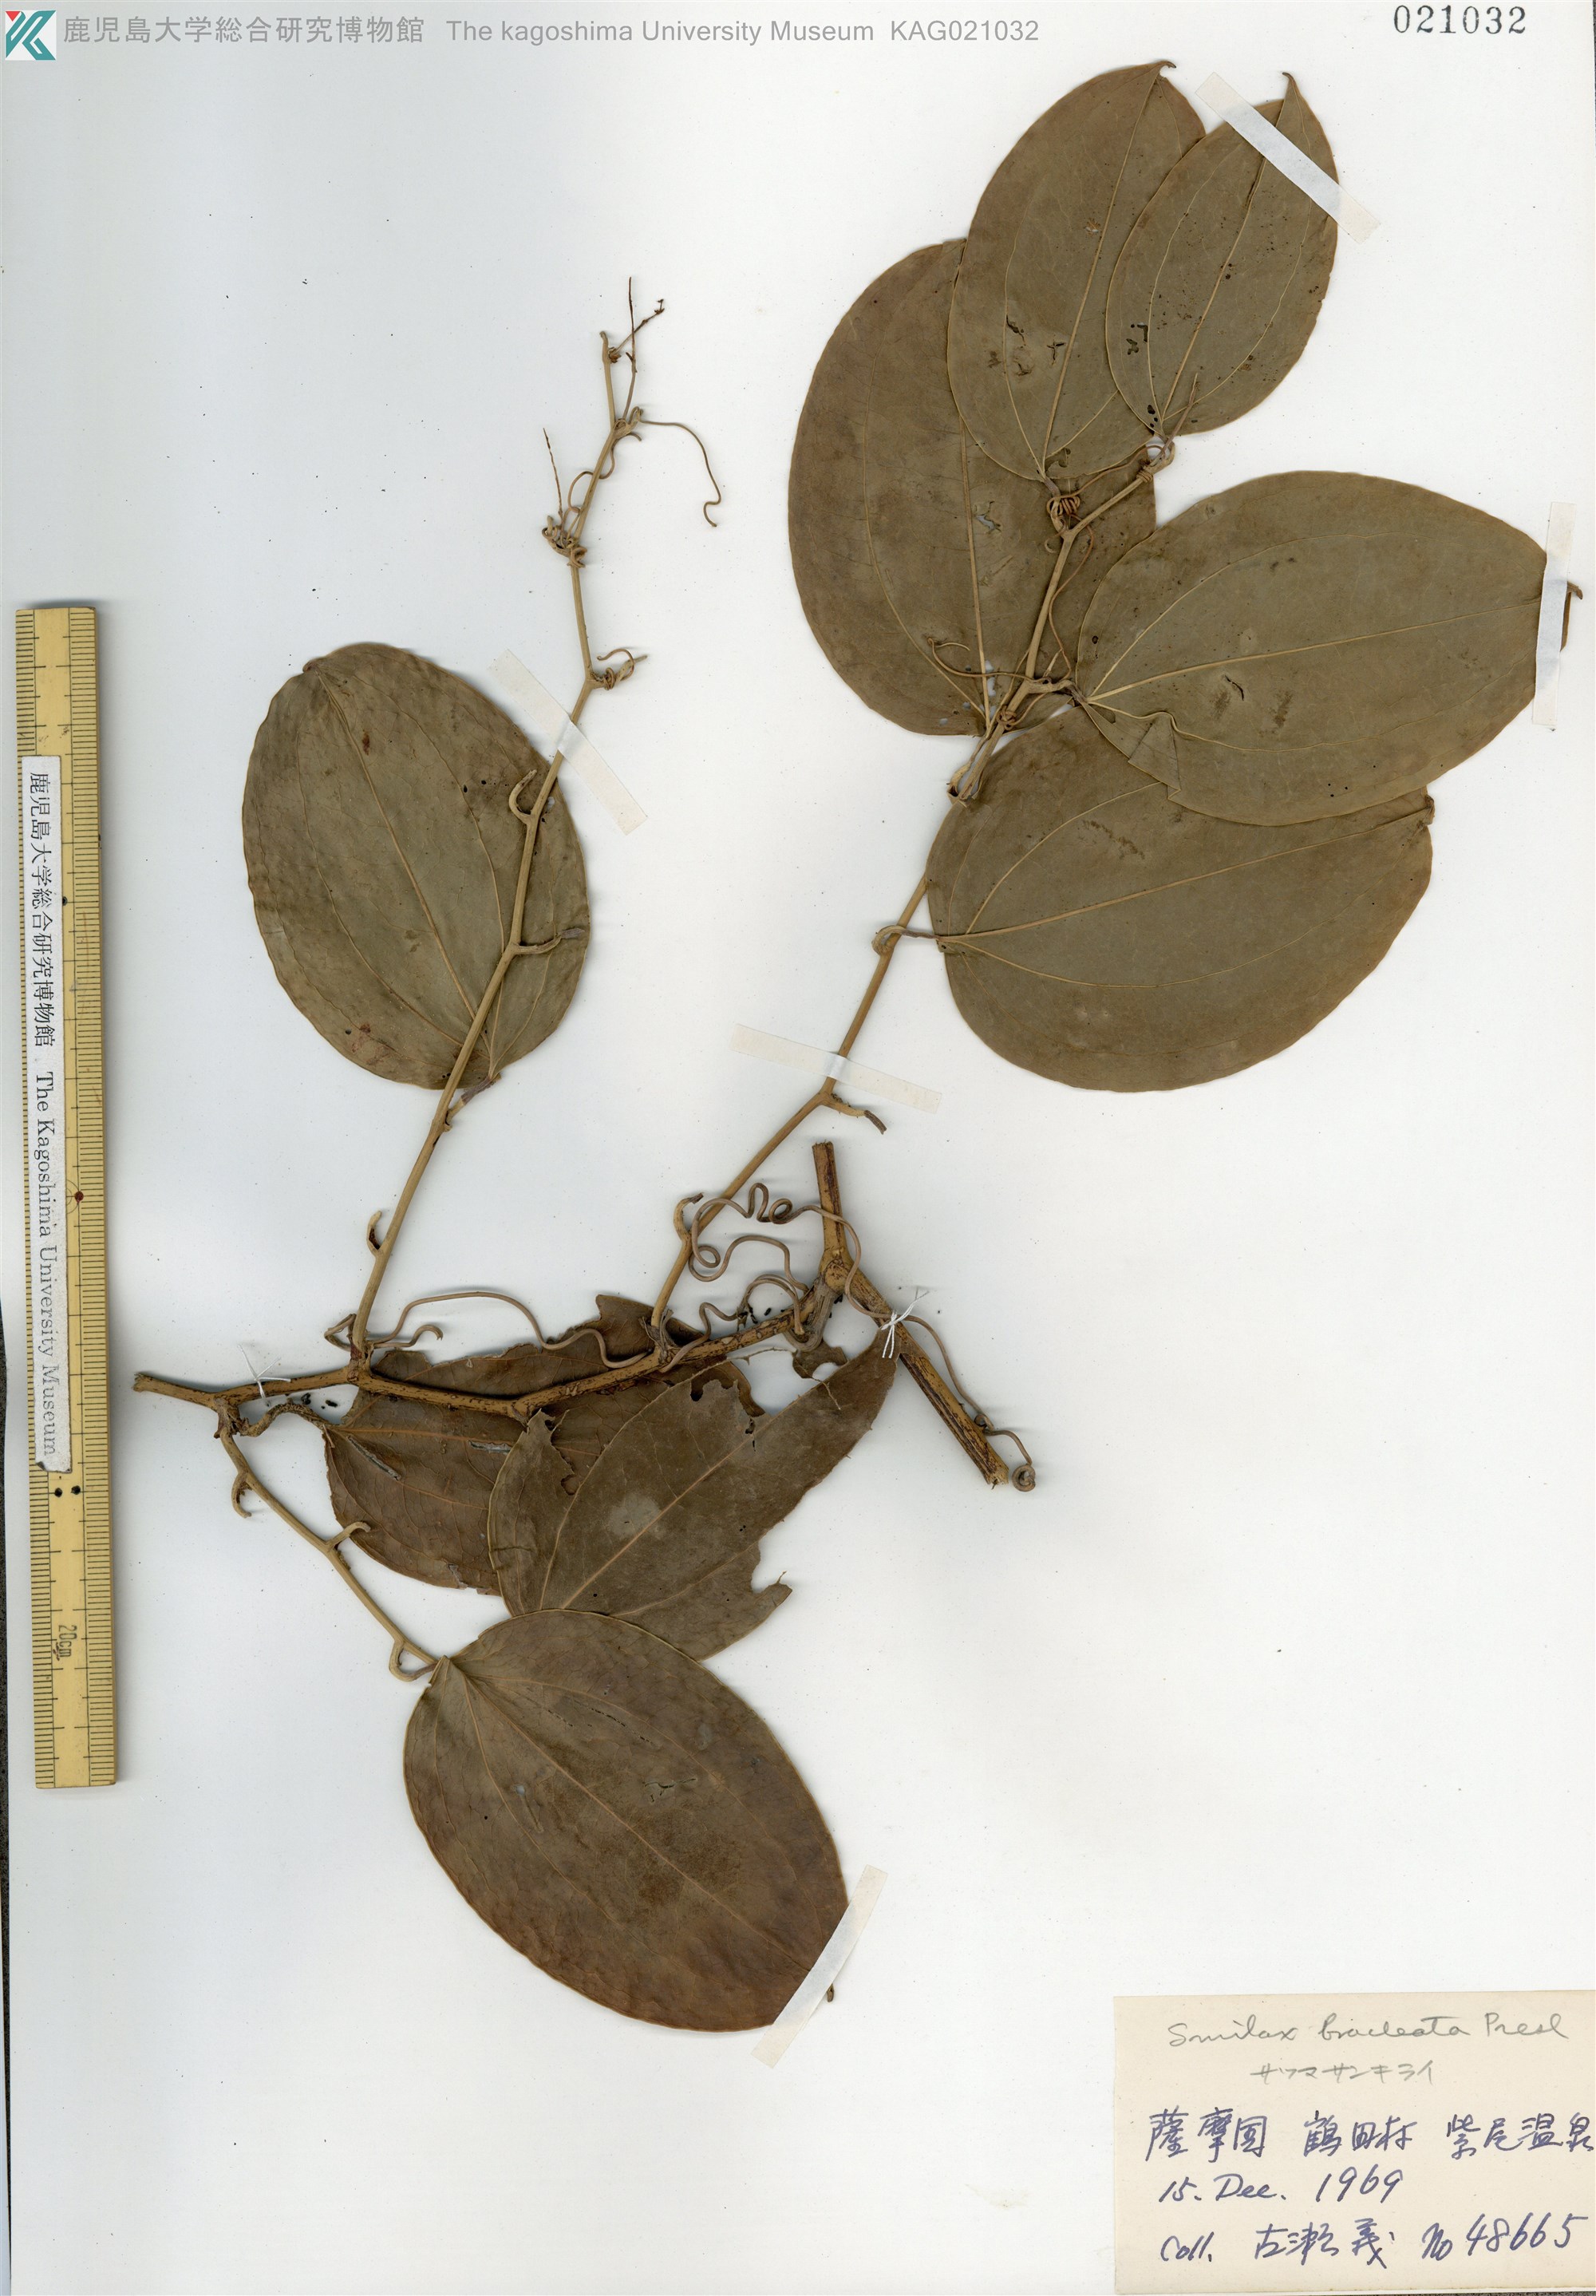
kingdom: Plantae
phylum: Tracheophyta
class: Liliopsida
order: Liliales
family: Smilacaceae
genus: Smilax
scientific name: Smilax bracteata
